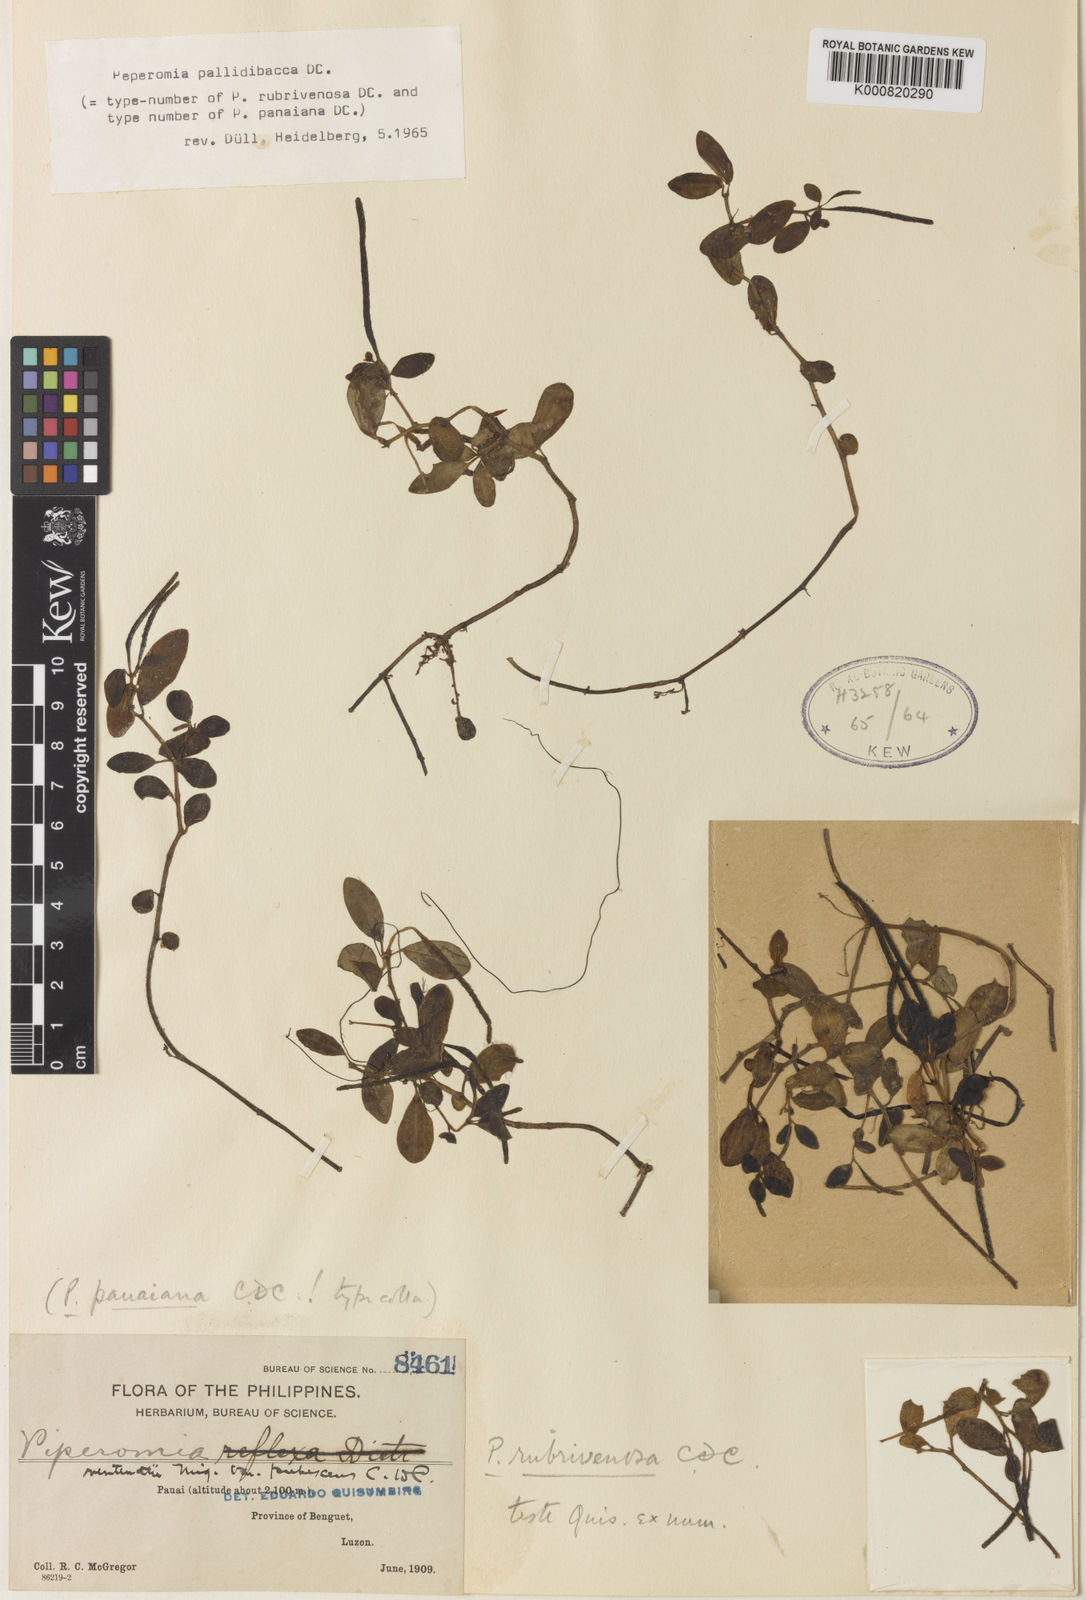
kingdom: Plantae
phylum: Tracheophyta
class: Magnoliopsida
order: Piperales
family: Piperaceae
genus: Peperomia
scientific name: Peperomia rubrivenosa
